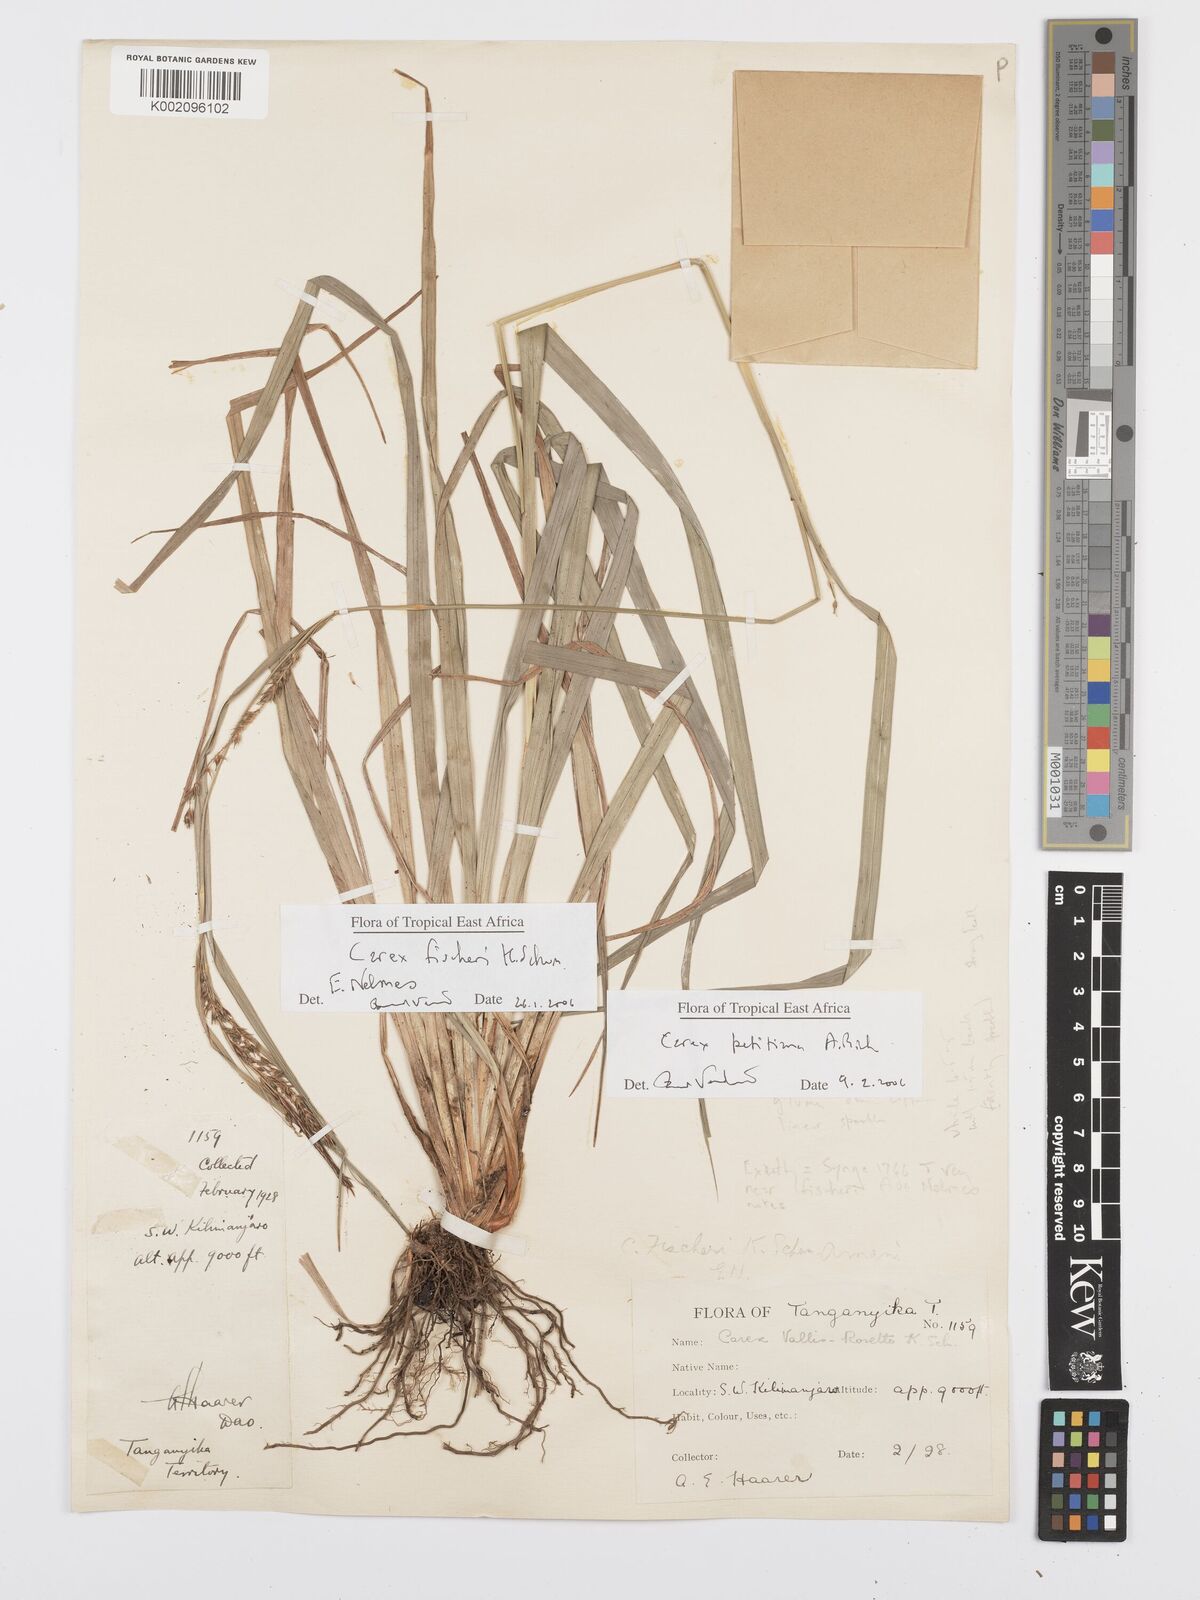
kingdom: Plantae
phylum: Tracheophyta
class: Liliopsida
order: Poales
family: Cyperaceae
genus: Carex
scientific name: Carex petitiana
